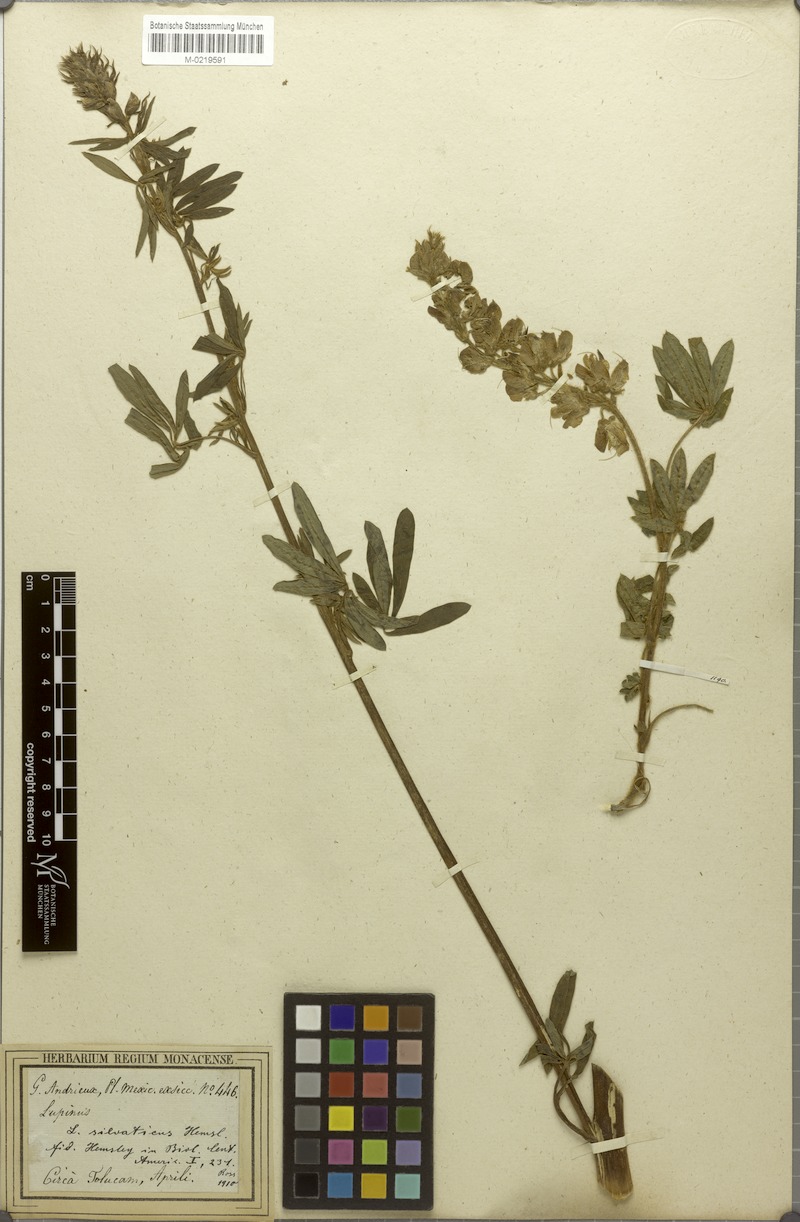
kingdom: Plantae
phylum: Tracheophyta
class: Magnoliopsida
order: Fabales
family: Fabaceae
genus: Lupinus
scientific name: Lupinus montanus
